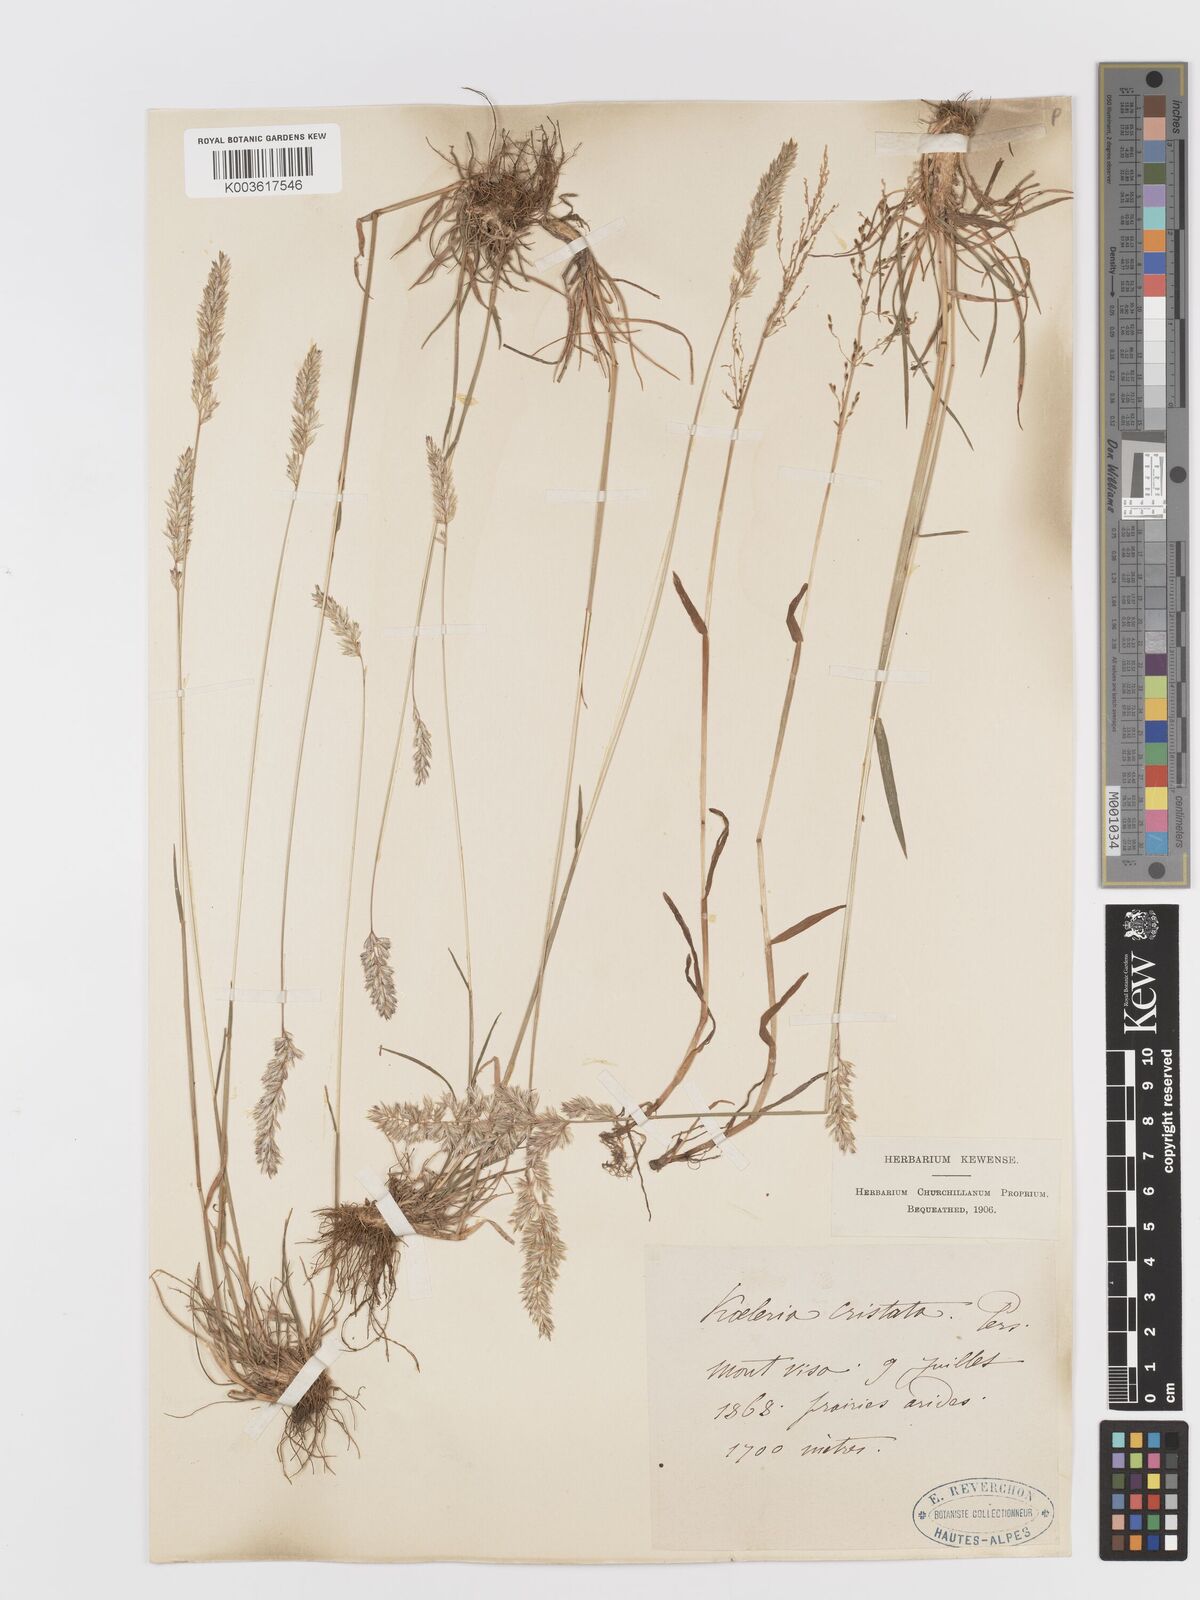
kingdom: Plantae
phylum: Tracheophyta
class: Liliopsida
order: Poales
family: Poaceae
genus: Koeleria
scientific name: Koeleria
